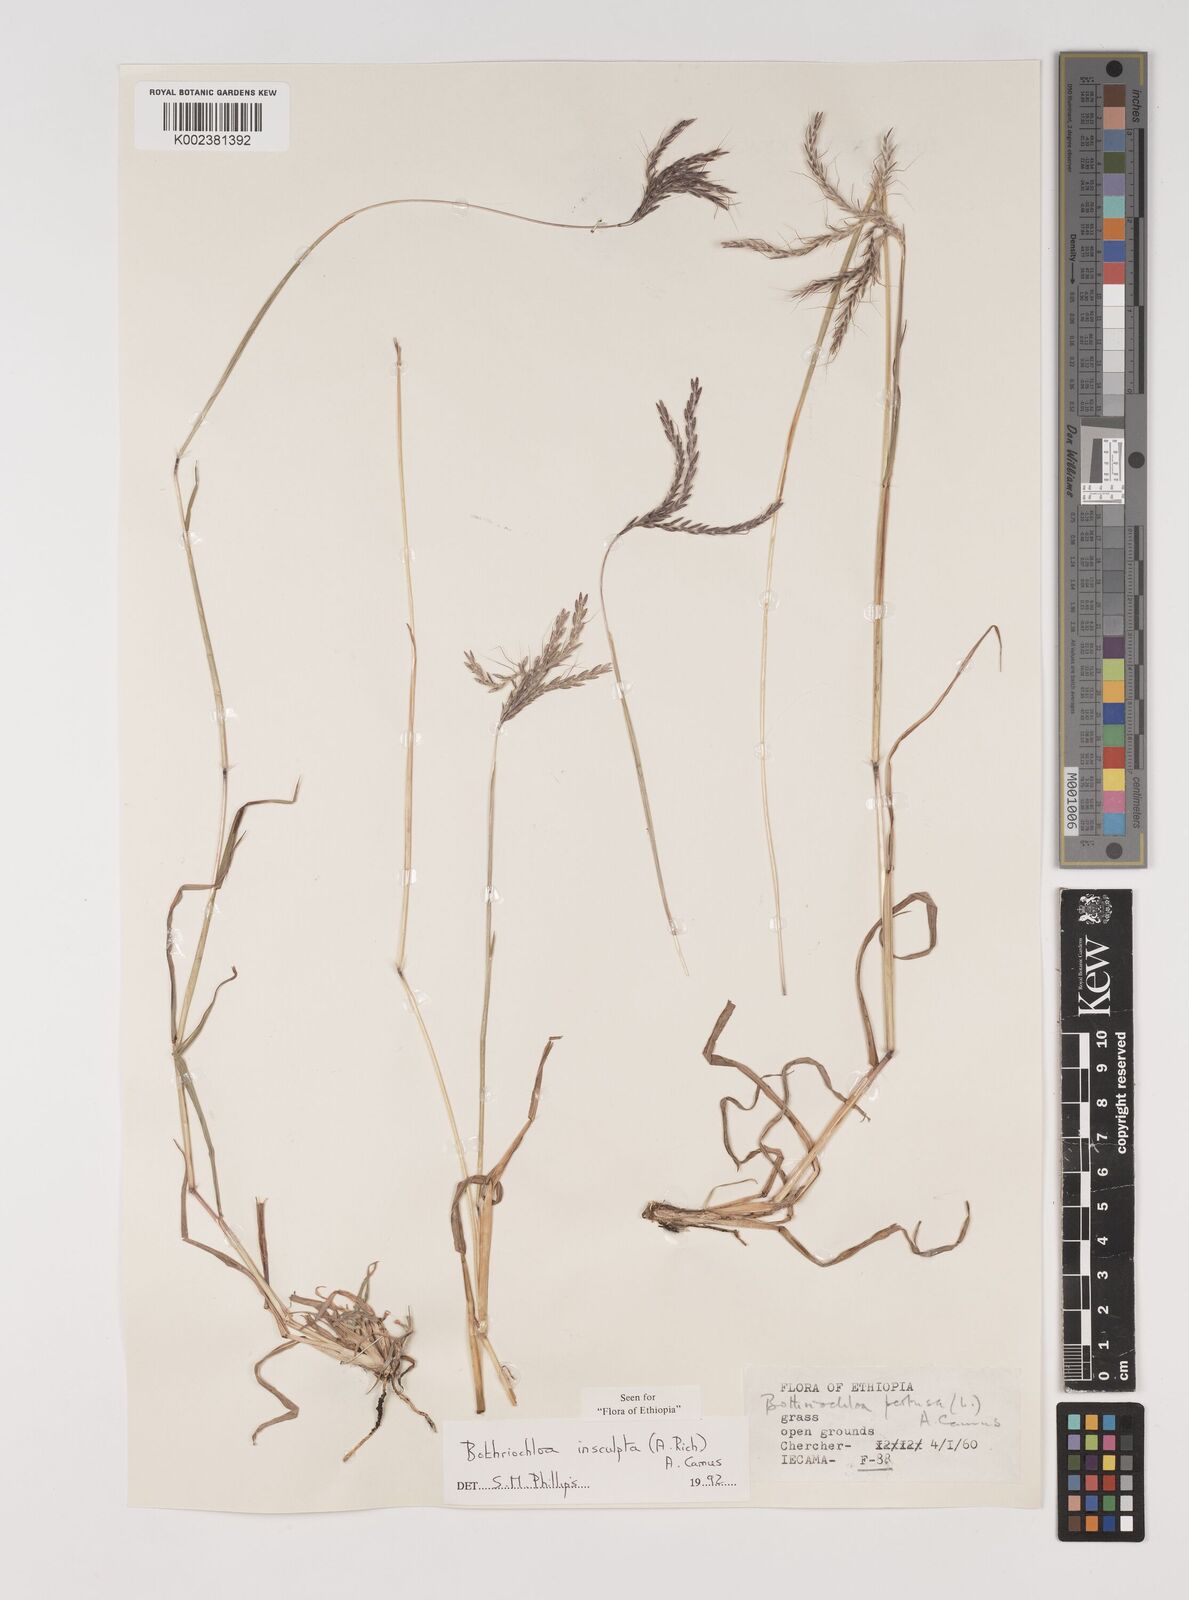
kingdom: Plantae
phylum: Tracheophyta
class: Liliopsida
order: Poales
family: Poaceae
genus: Bothriochloa
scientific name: Bothriochloa insculpta
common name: Creeping-bluegrass
